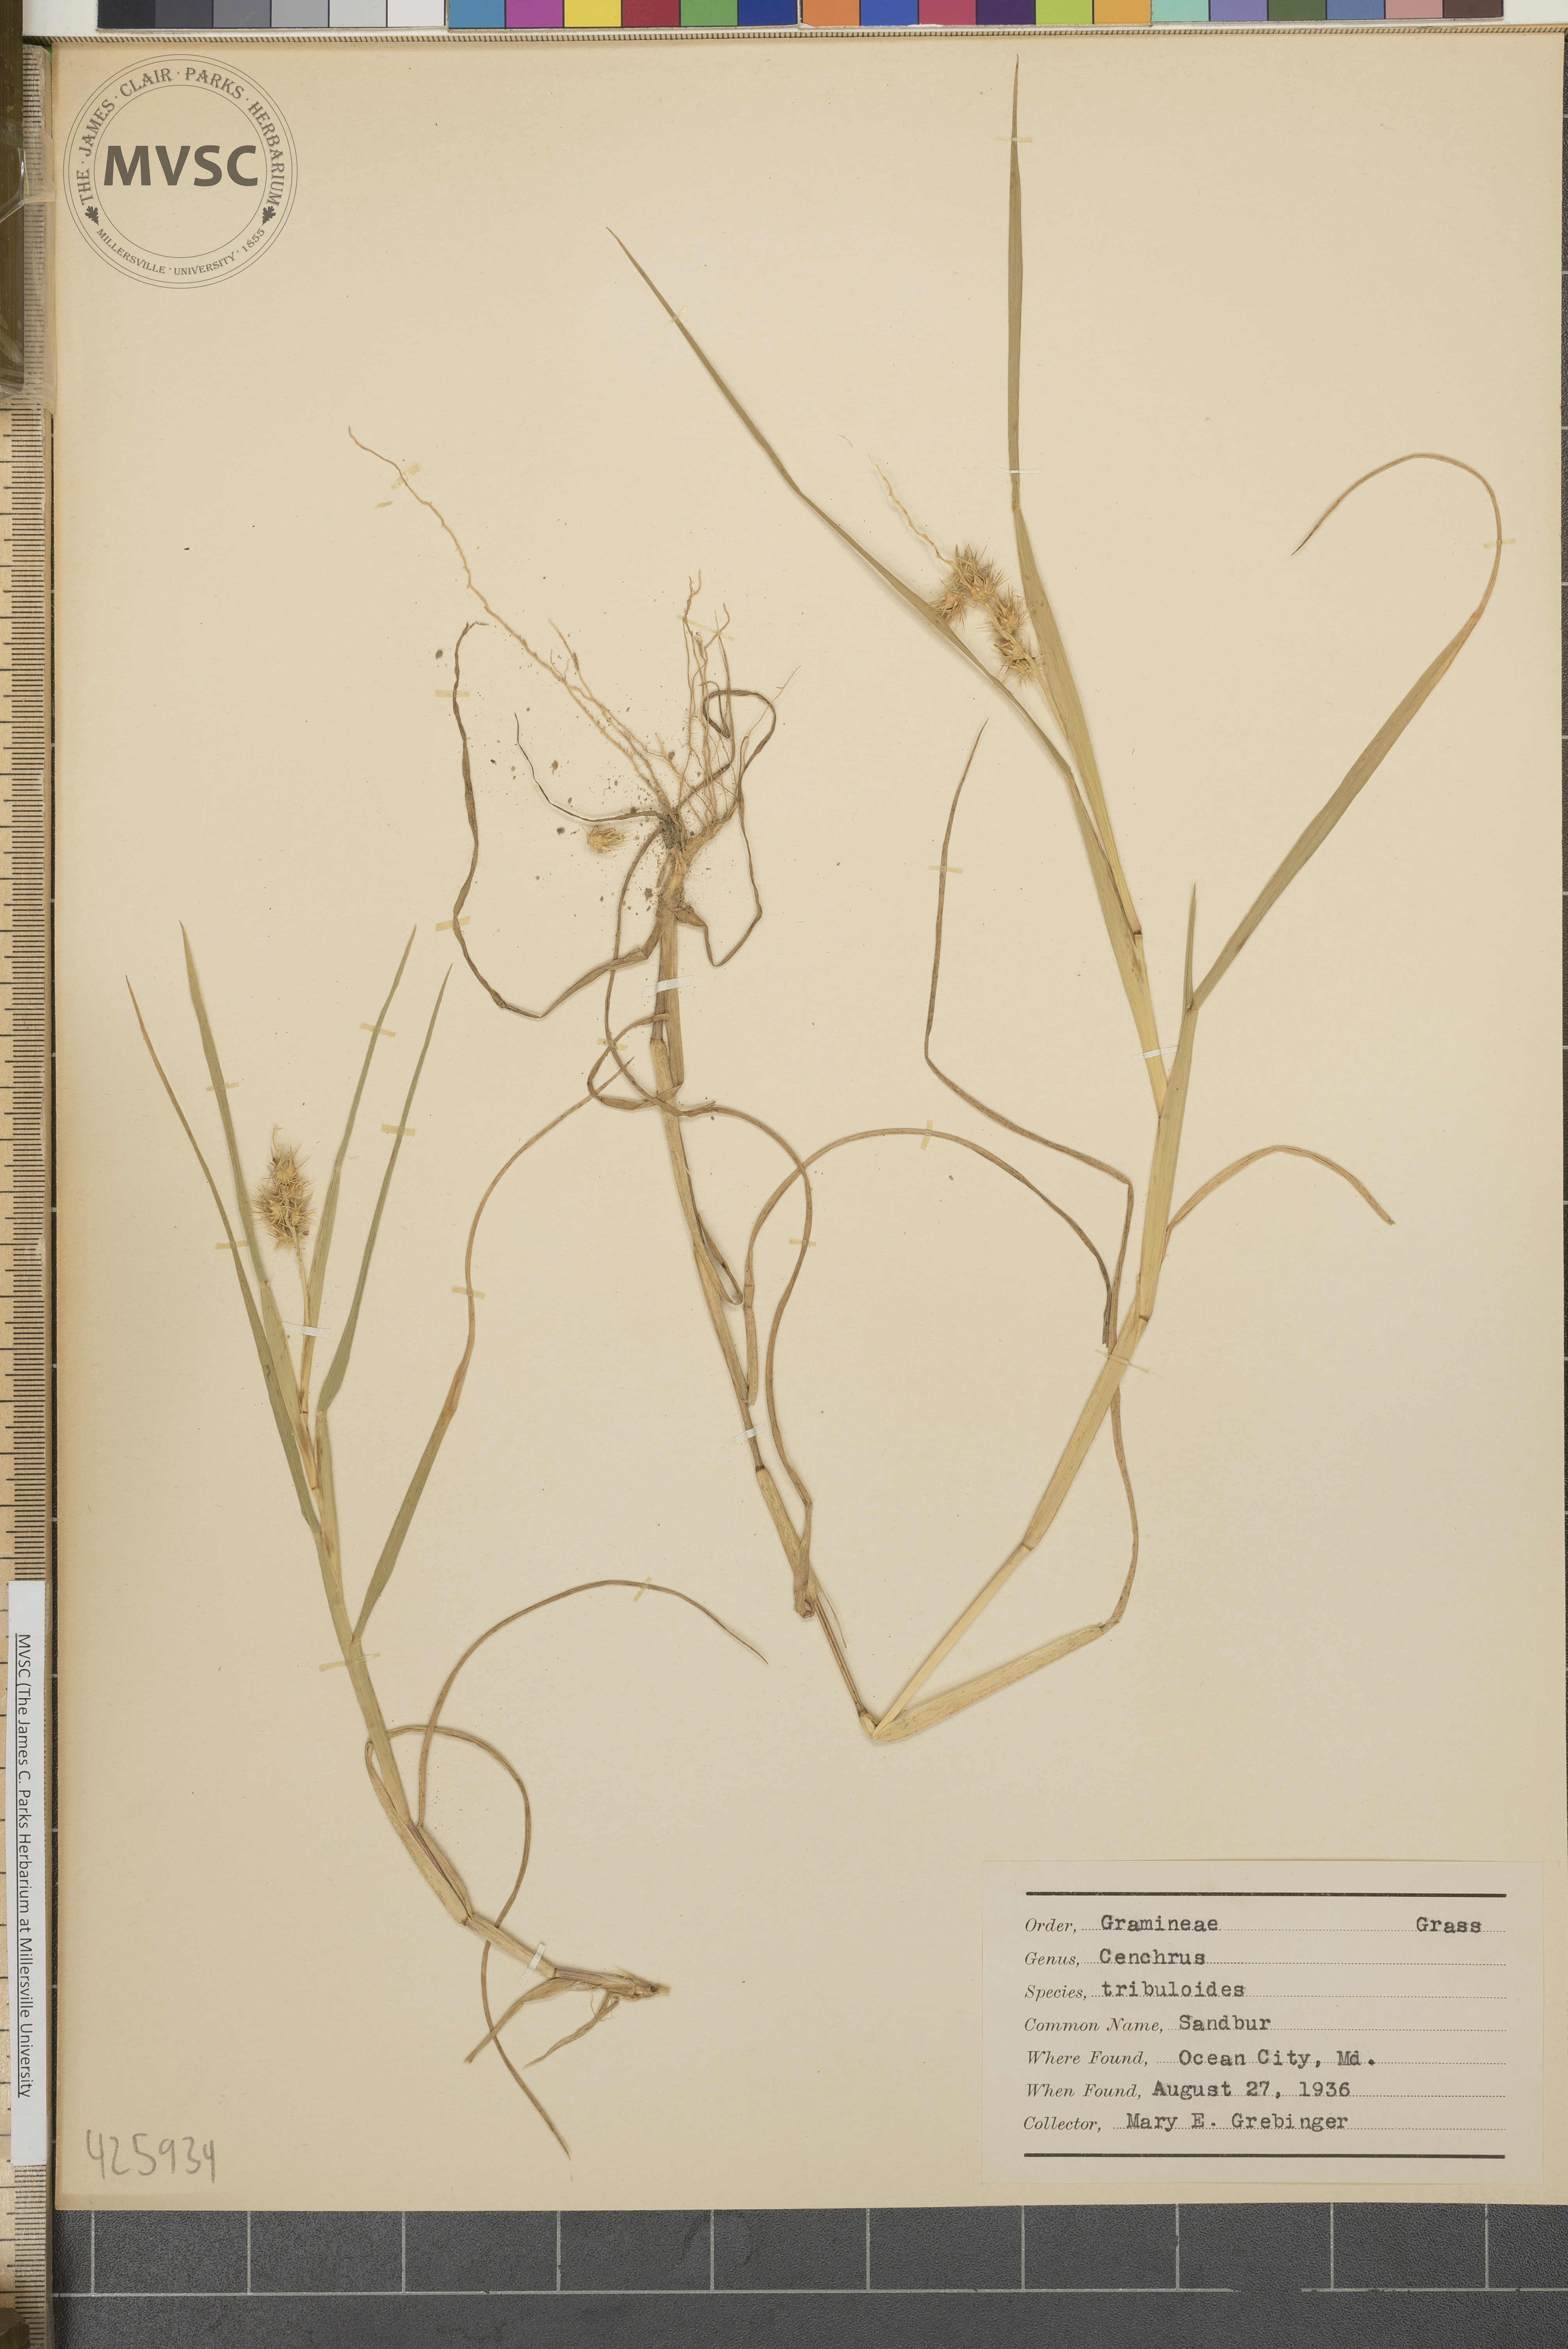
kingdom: Plantae
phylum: Tracheophyta
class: Liliopsida
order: Poales
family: Poaceae
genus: Cenchrus
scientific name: Cenchrus tribuloides
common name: Sandbur
